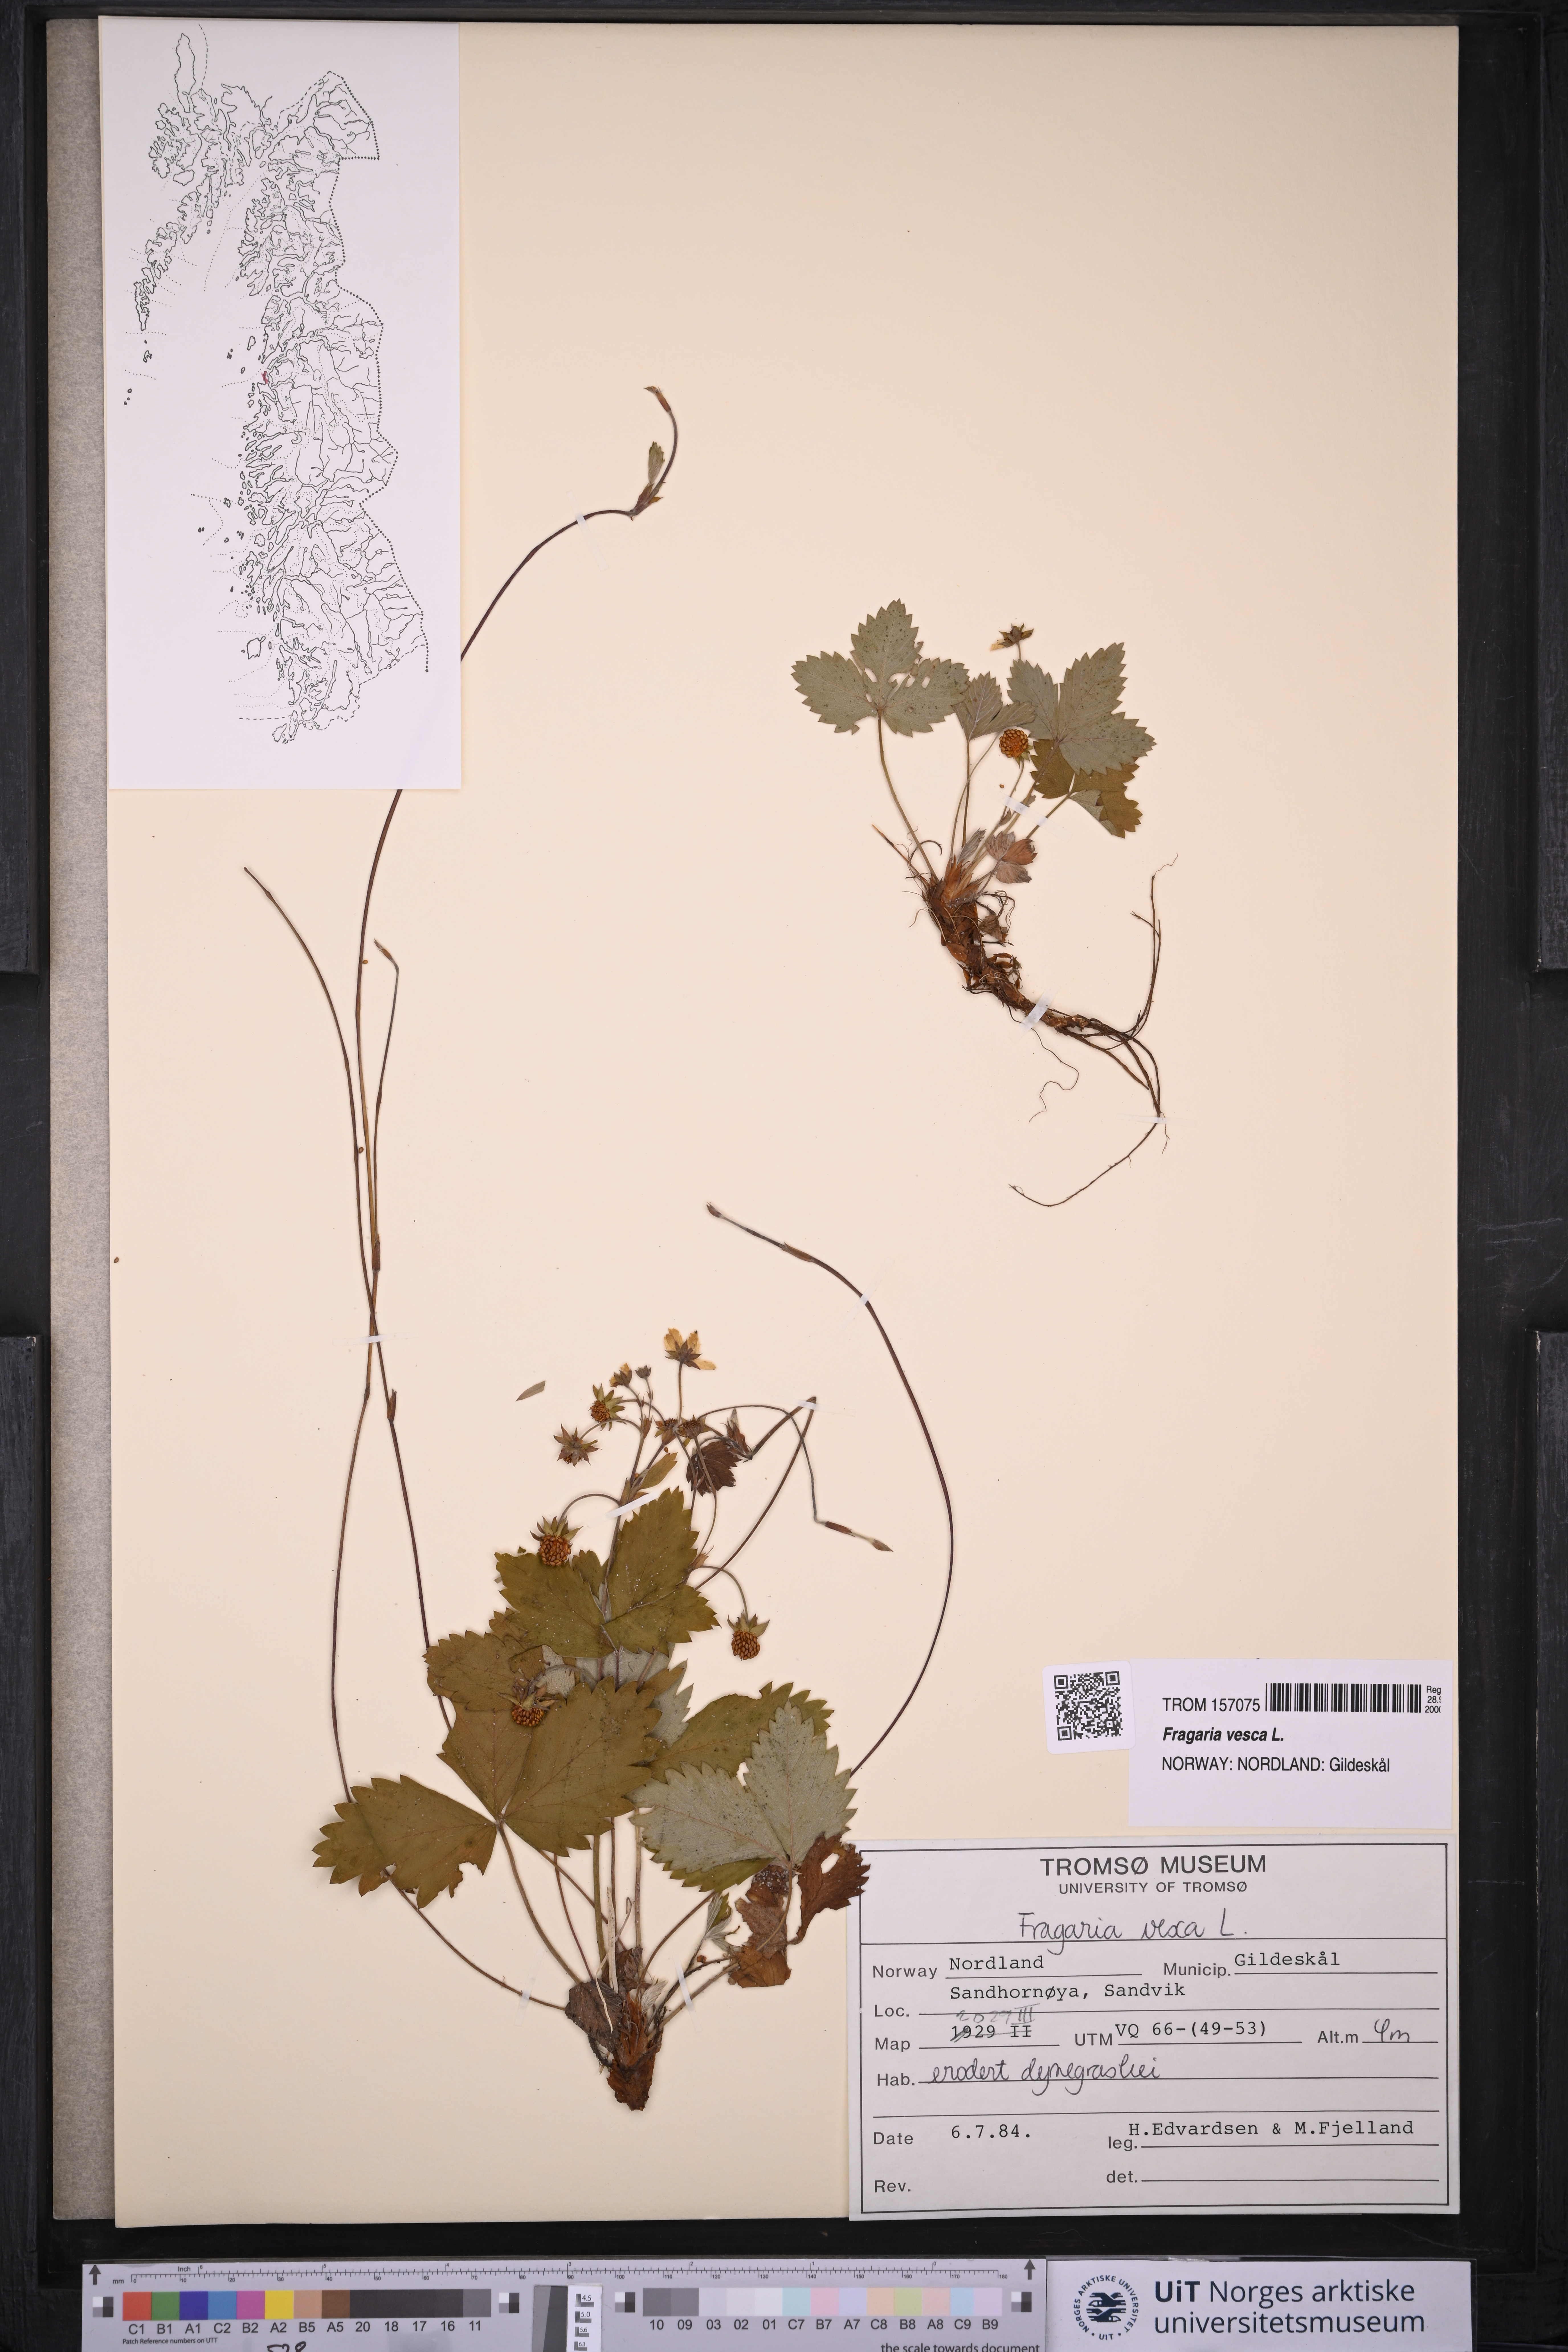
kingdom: Plantae
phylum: Tracheophyta
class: Magnoliopsida
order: Rosales
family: Rosaceae
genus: Fragaria
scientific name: Fragaria vesca
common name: Wild strawberry
